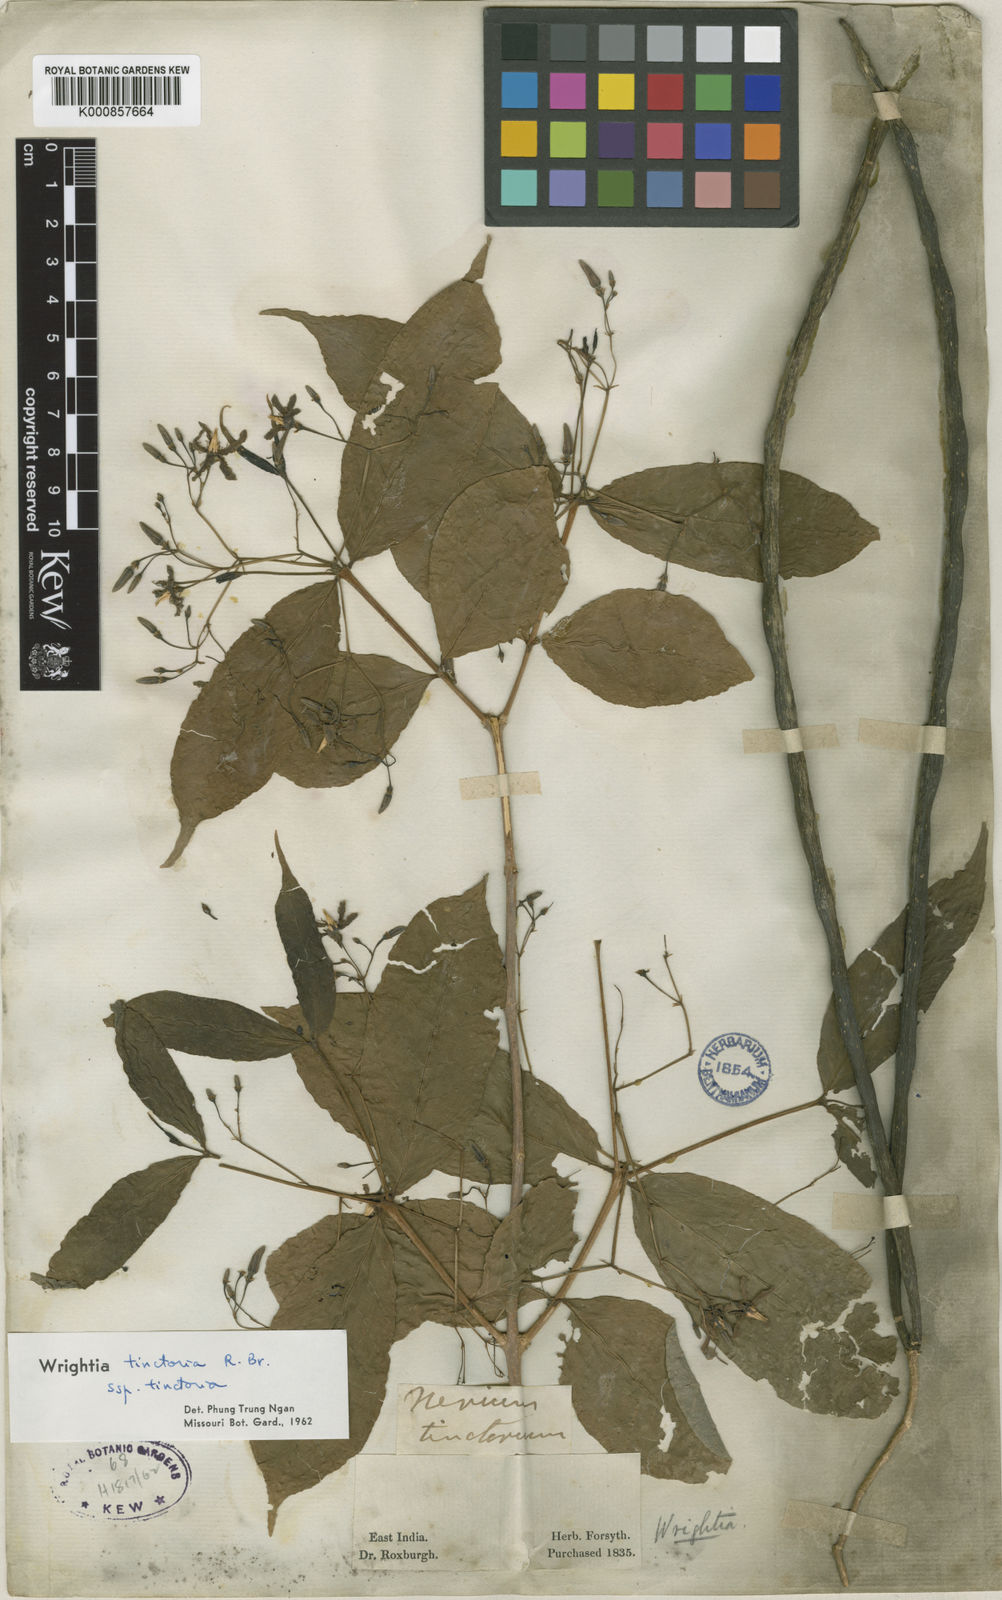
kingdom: Plantae
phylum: Tracheophyta
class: Magnoliopsida
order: Gentianales
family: Apocynaceae
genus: Wrightia
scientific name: Wrightia tinctoria
